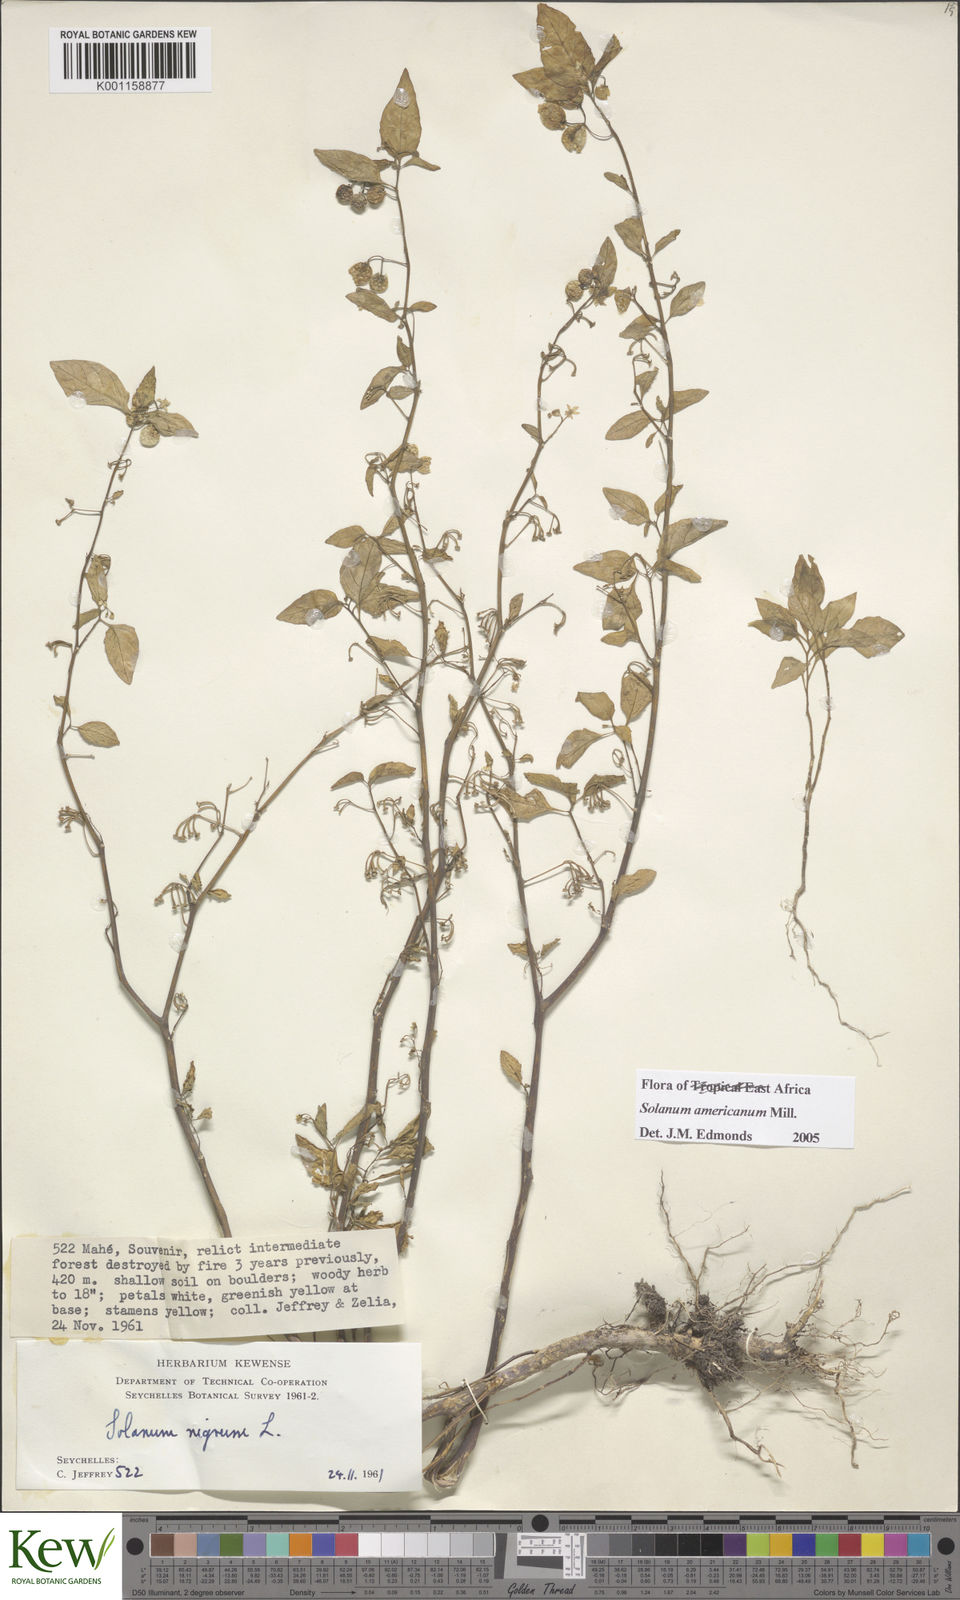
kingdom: Plantae
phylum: Tracheophyta
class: Magnoliopsida
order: Solanales
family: Solanaceae
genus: Solanum
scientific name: Solanum americanum
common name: American black nightshade
